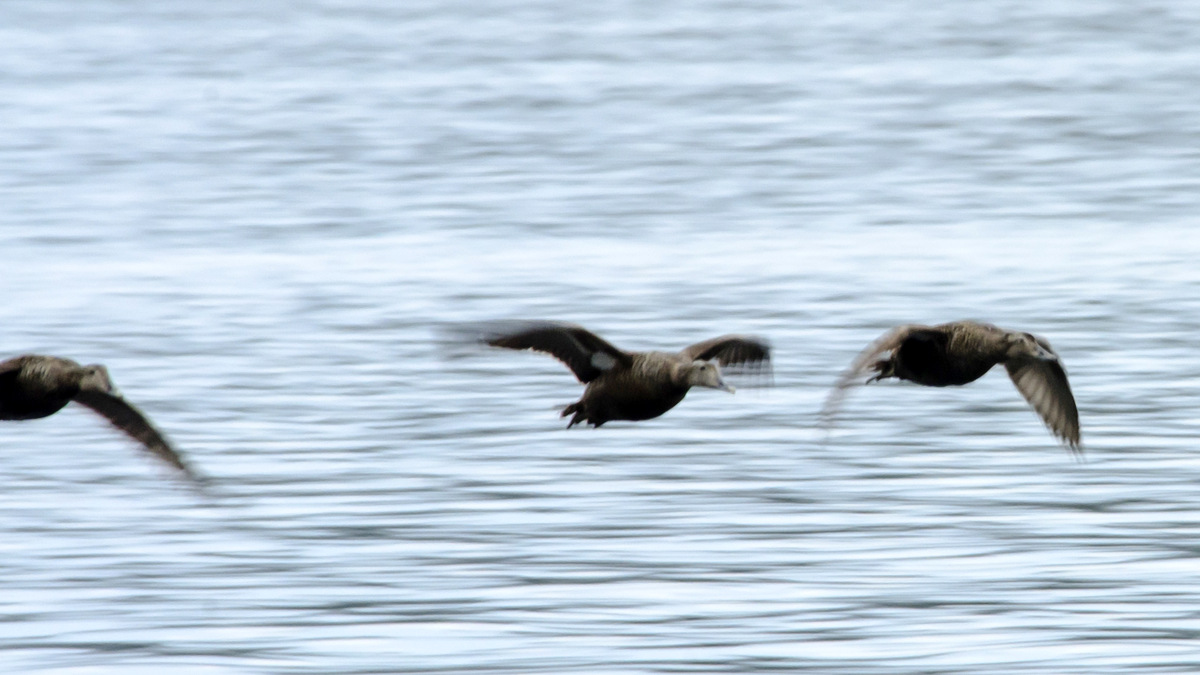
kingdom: Animalia
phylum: Chordata
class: Aves
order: Anseriformes
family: Anatidae
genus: Somateria
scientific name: Somateria mollissima
